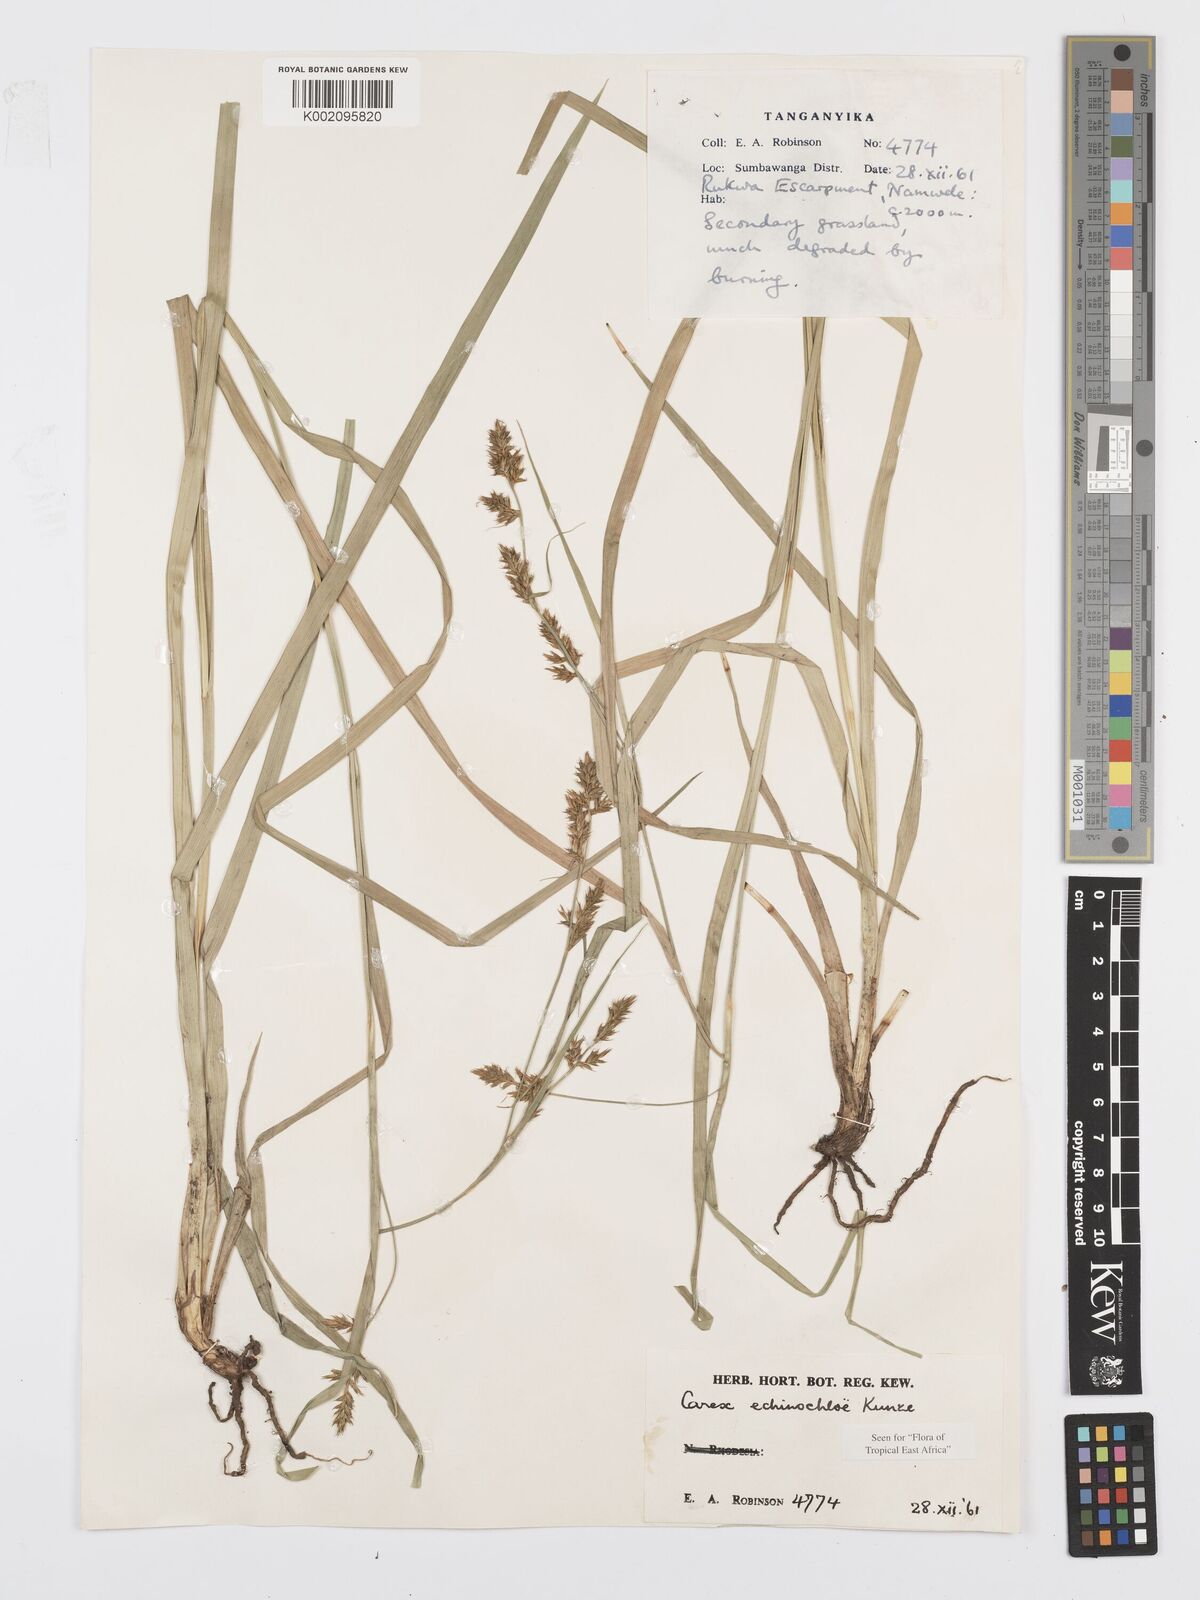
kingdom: Plantae
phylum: Tracheophyta
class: Liliopsida
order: Poales
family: Cyperaceae
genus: Carex
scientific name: Carex
